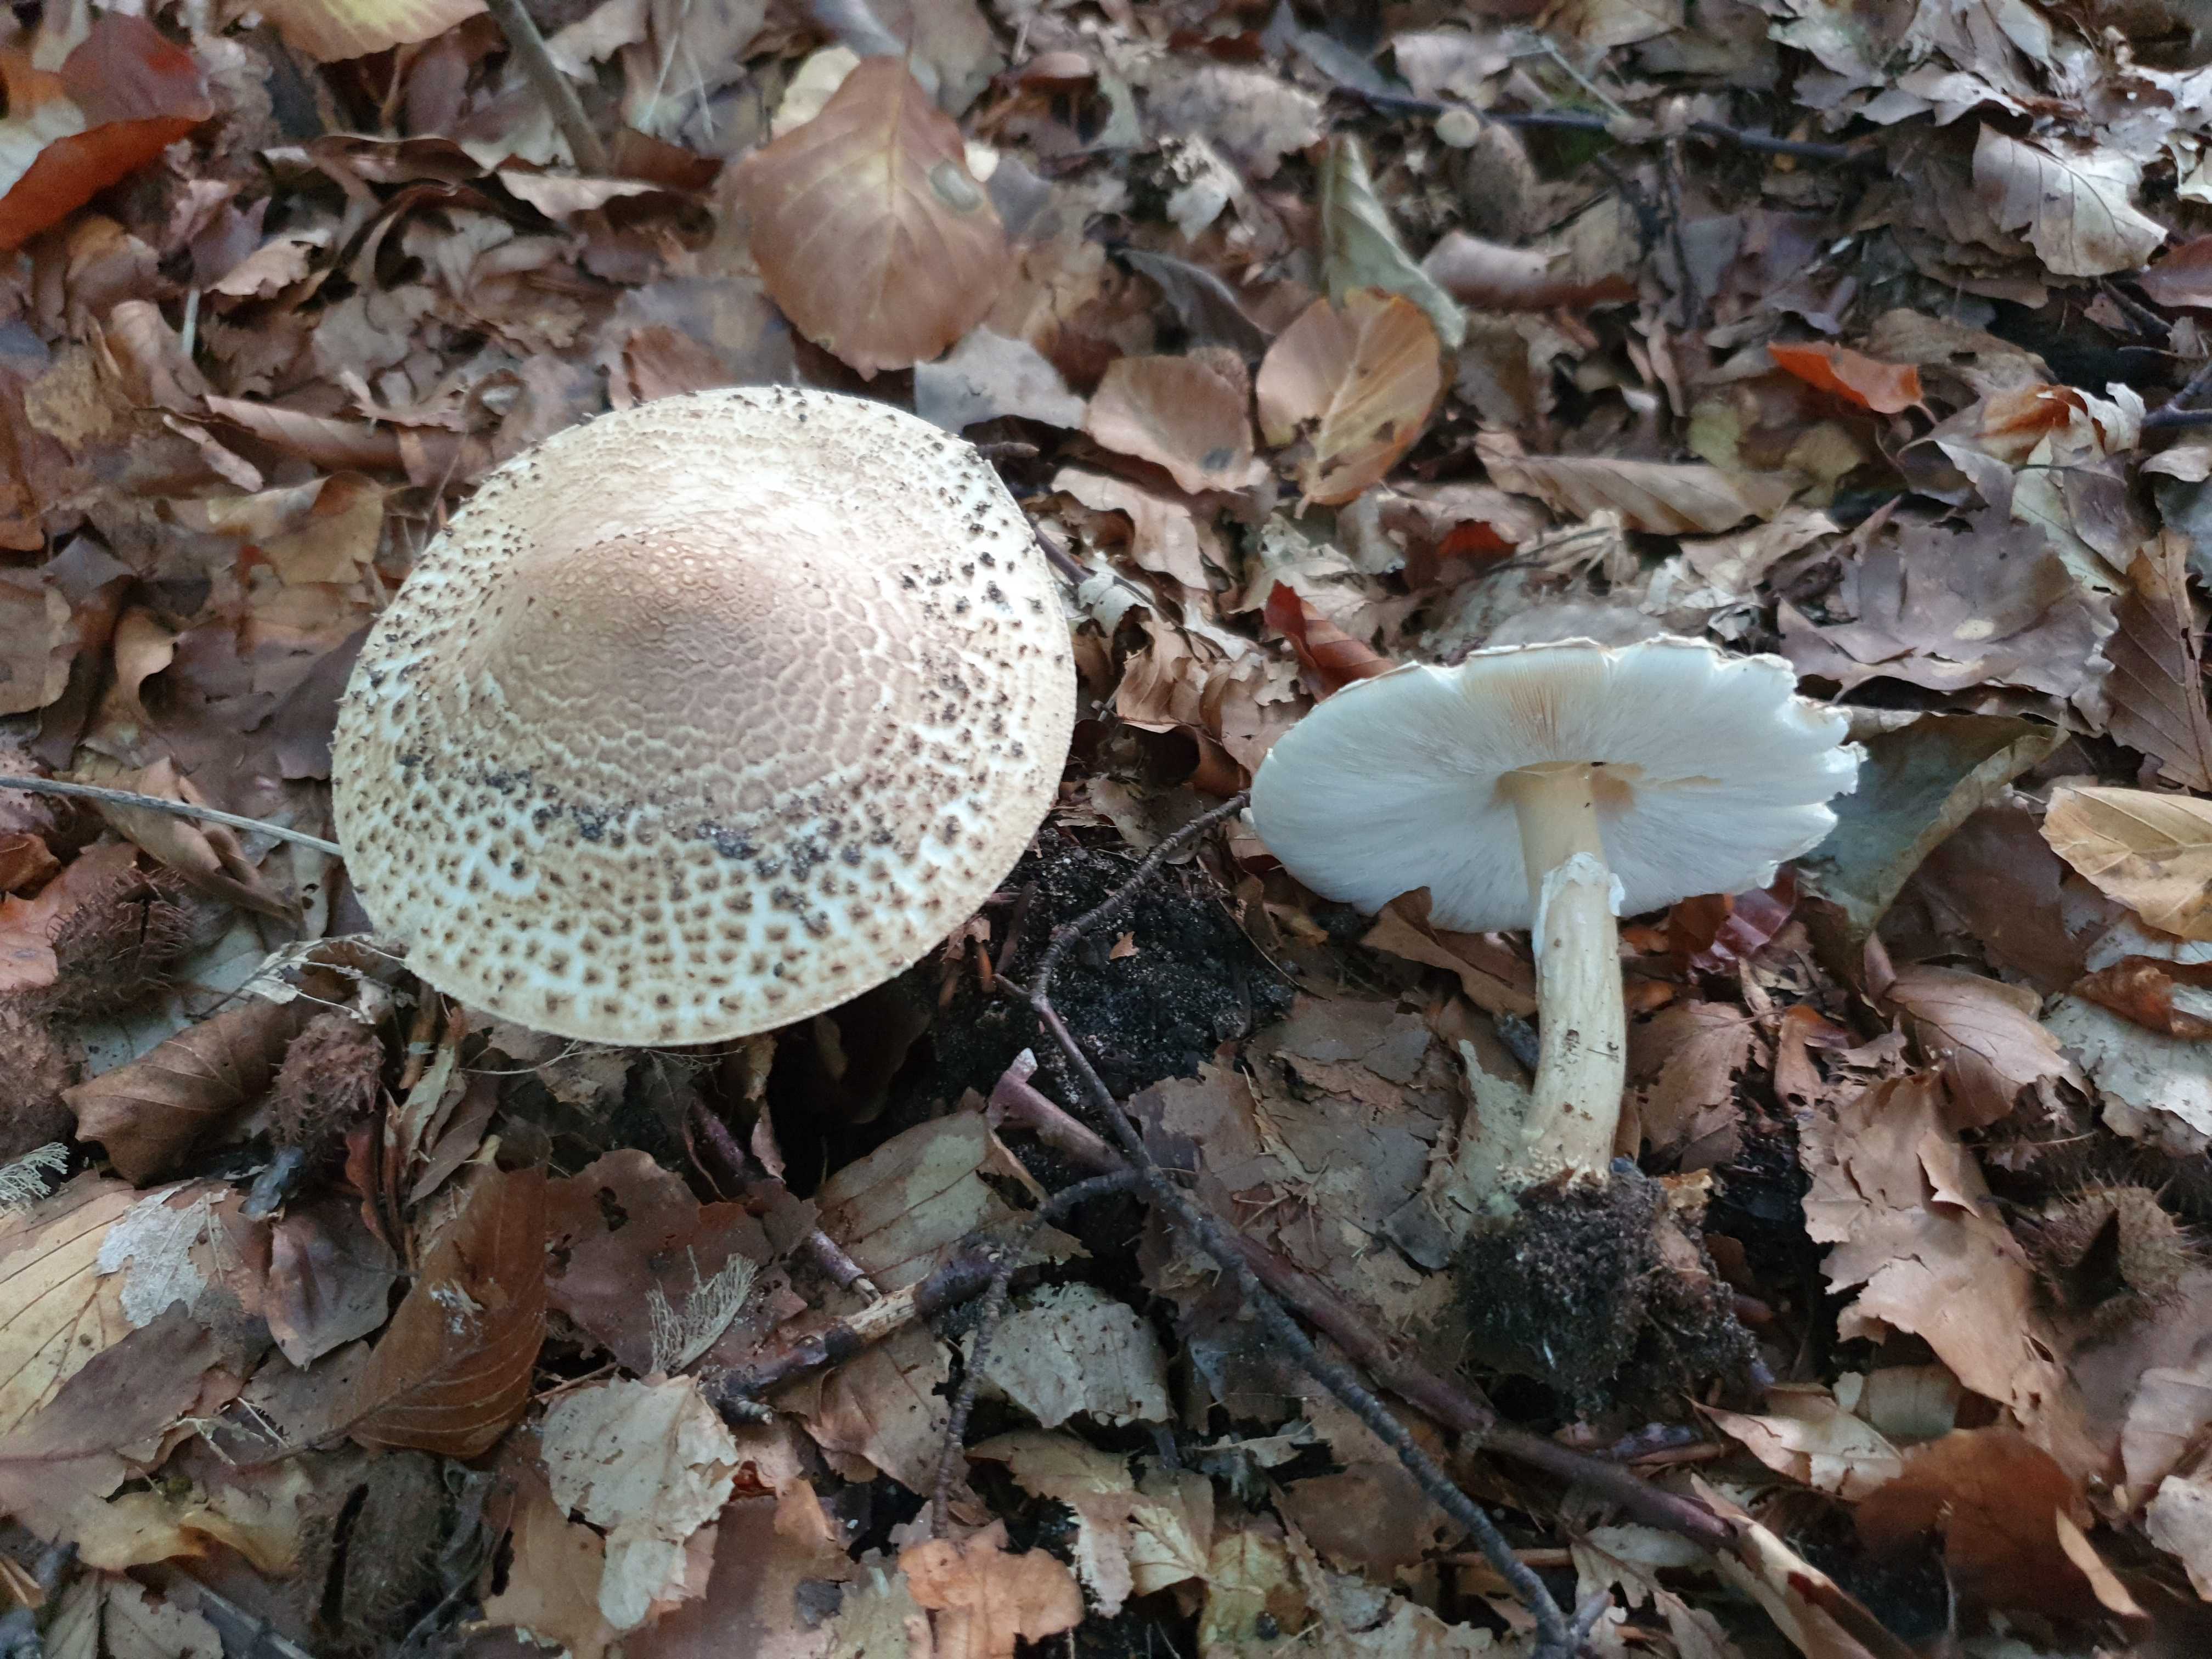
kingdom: Fungi
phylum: Basidiomycota
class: Agaricomycetes
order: Agaricales
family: Agaricaceae
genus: Echinoderma
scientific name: Echinoderma asperum
